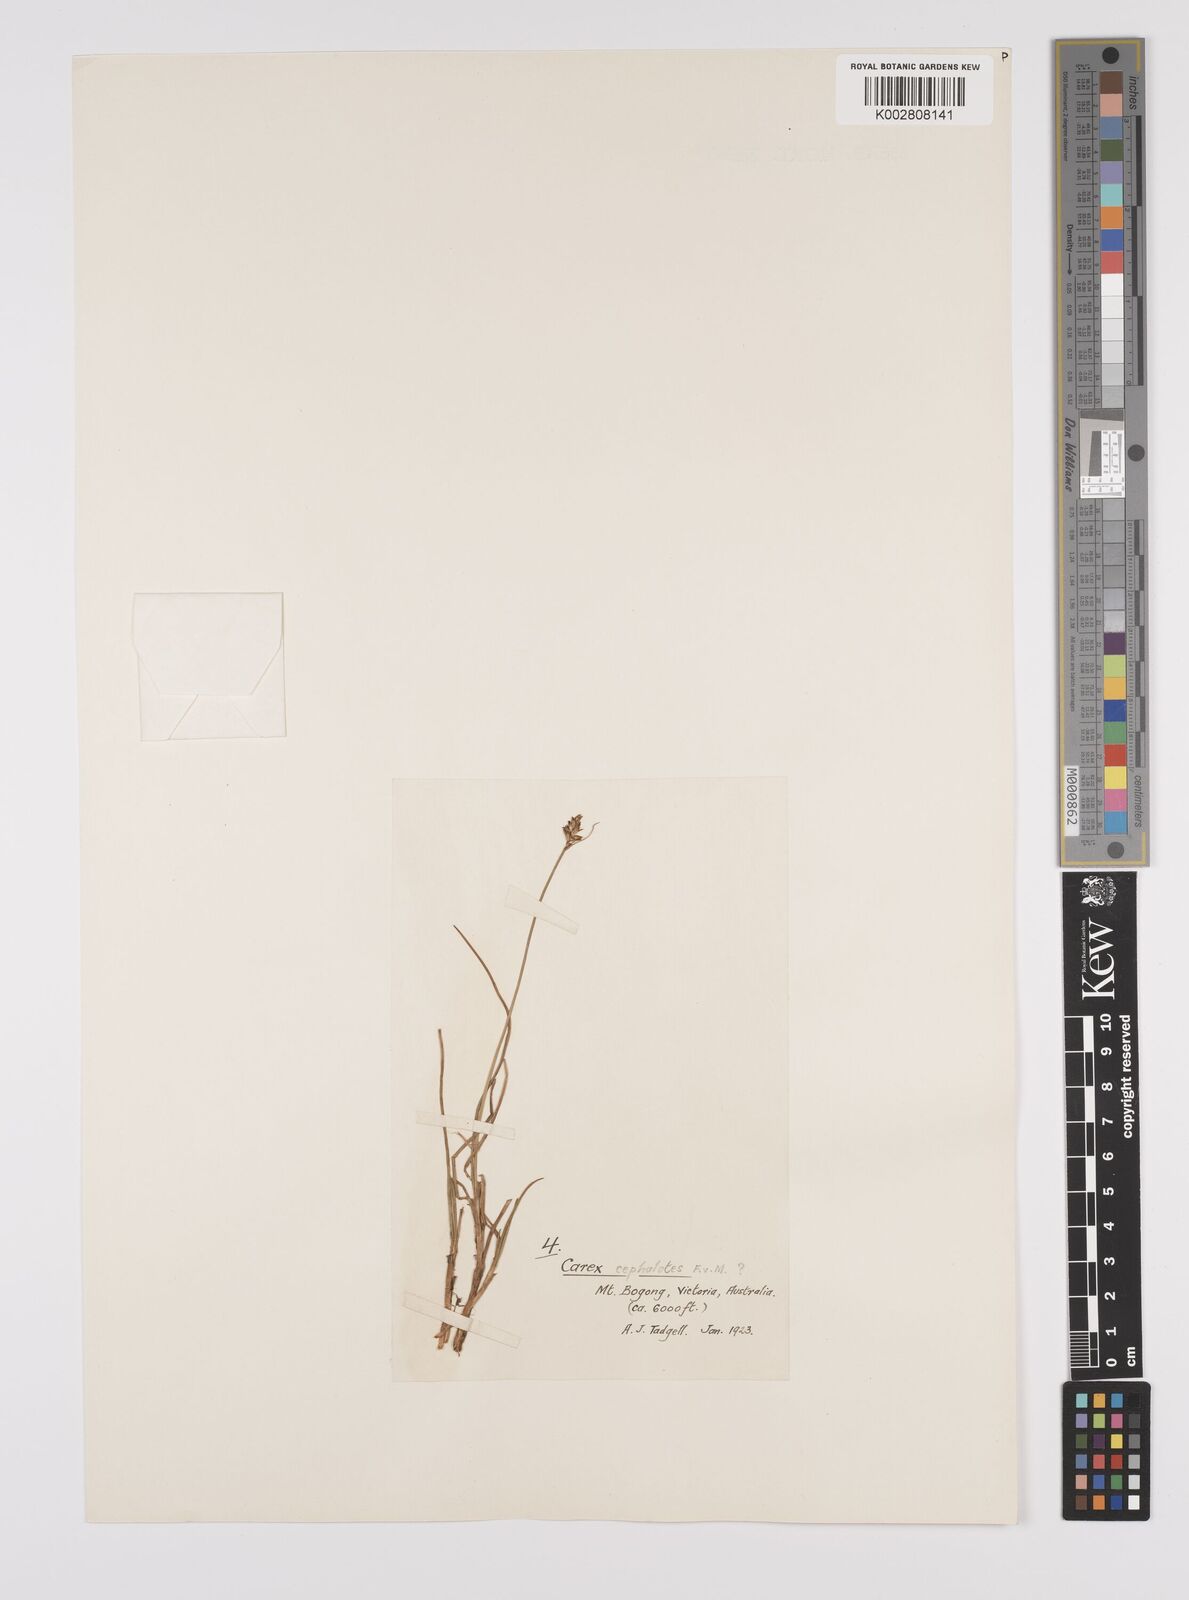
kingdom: Plantae
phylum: Tracheophyta
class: Liliopsida
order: Poales
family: Cyperaceae
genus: Carex
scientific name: Carex cephalotes
